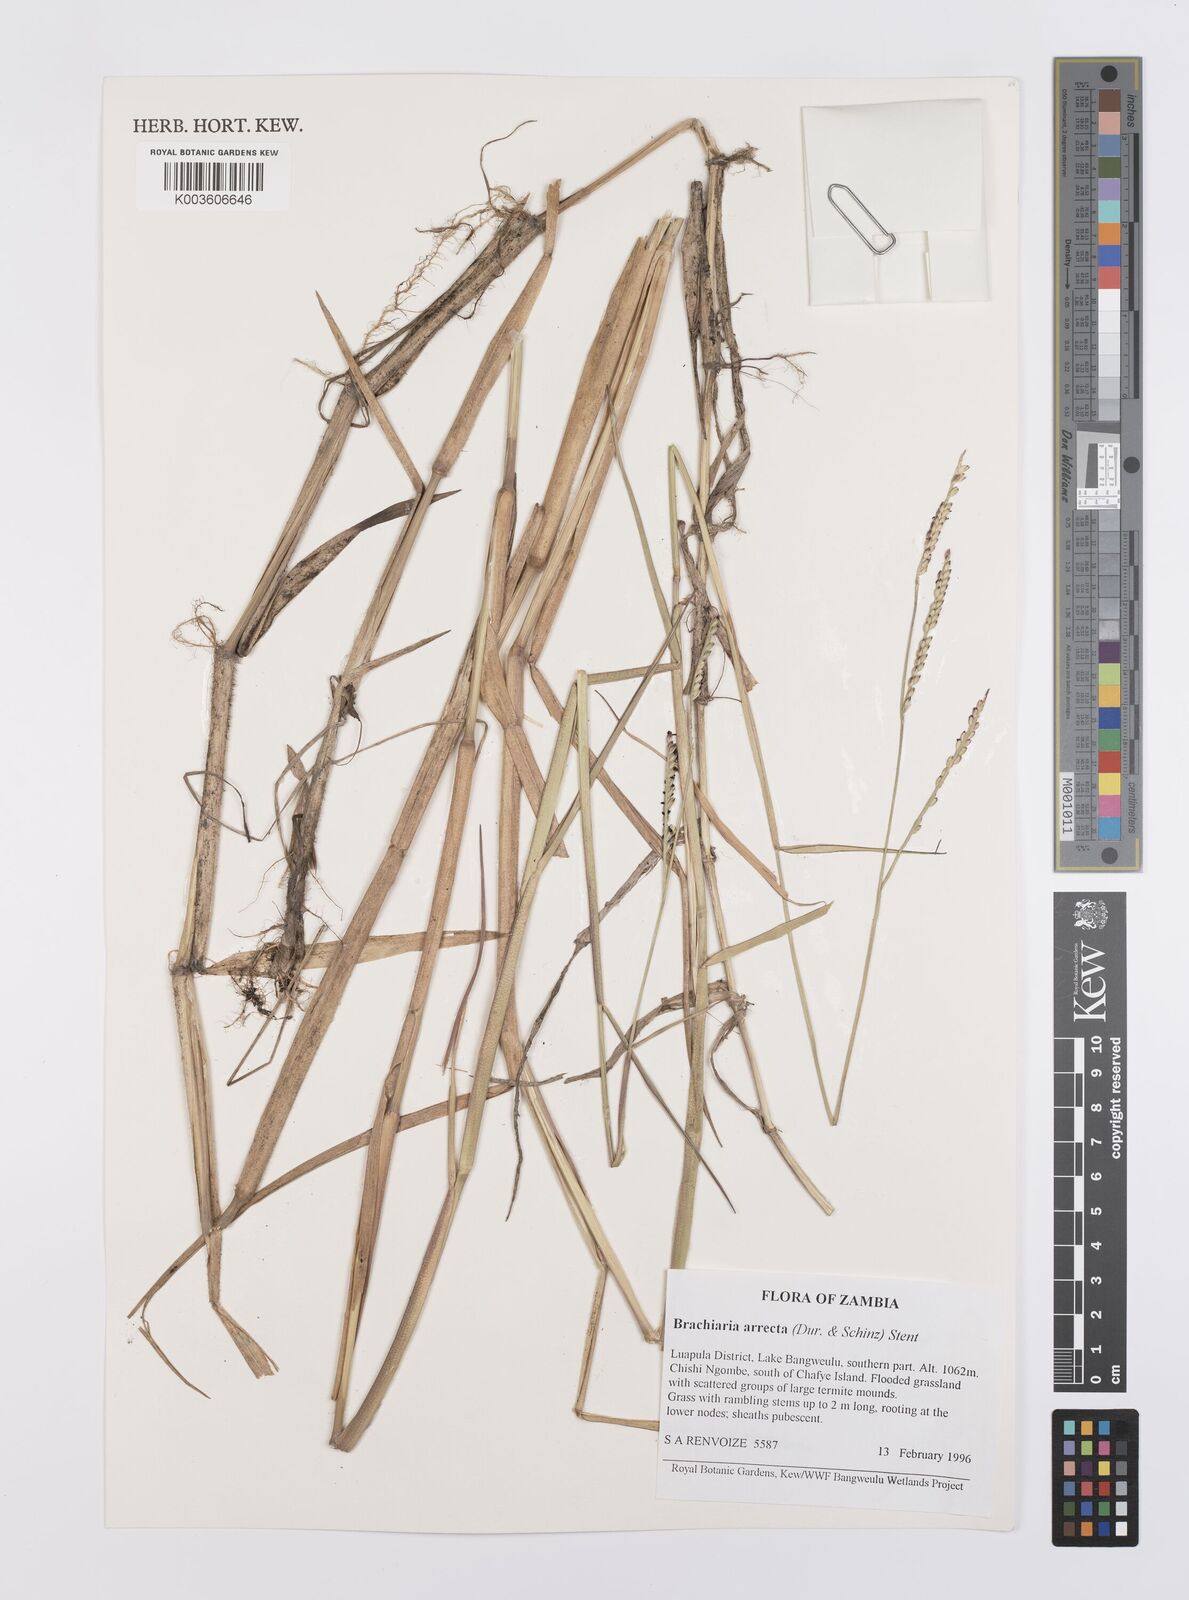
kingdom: Plantae
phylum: Tracheophyta
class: Liliopsida
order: Poales
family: Poaceae
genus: Urochloa
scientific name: Urochloa arrecta
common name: African signalgrass
